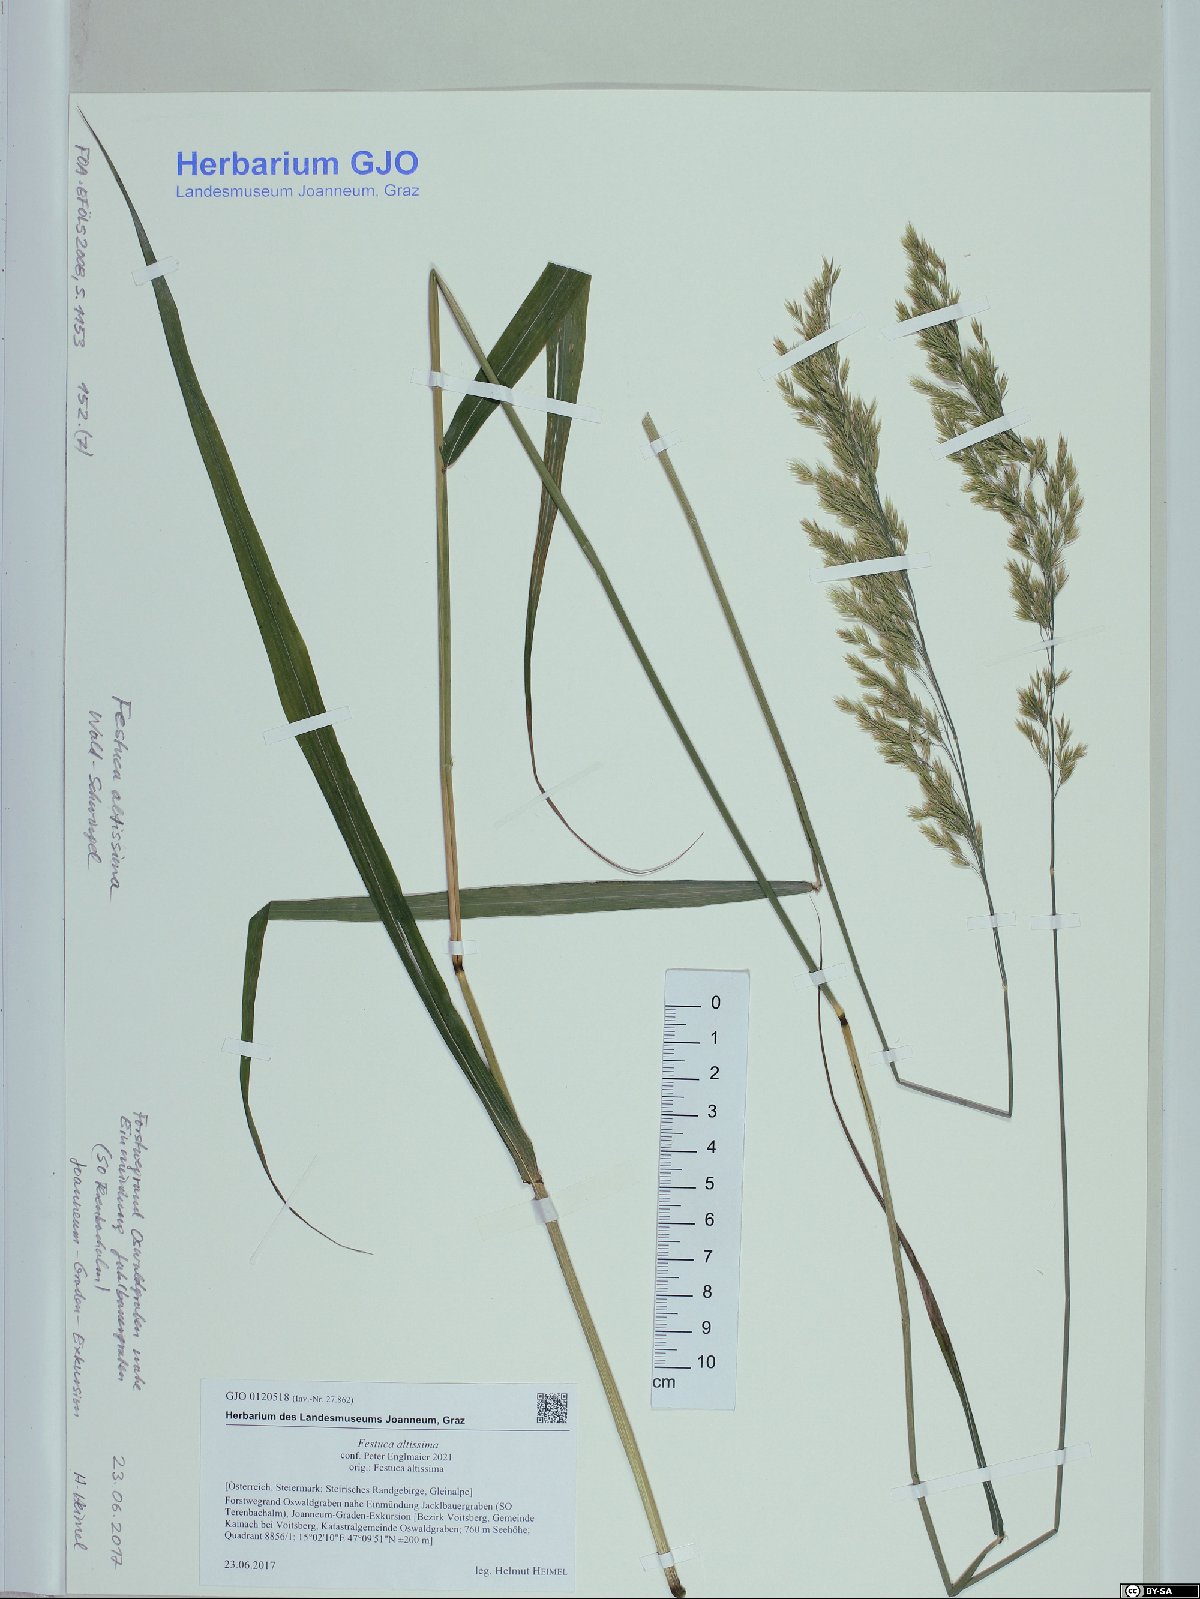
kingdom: Plantae
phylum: Tracheophyta
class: Liliopsida
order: Poales
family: Poaceae
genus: Festuca
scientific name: Festuca altissima
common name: Wood fescue
